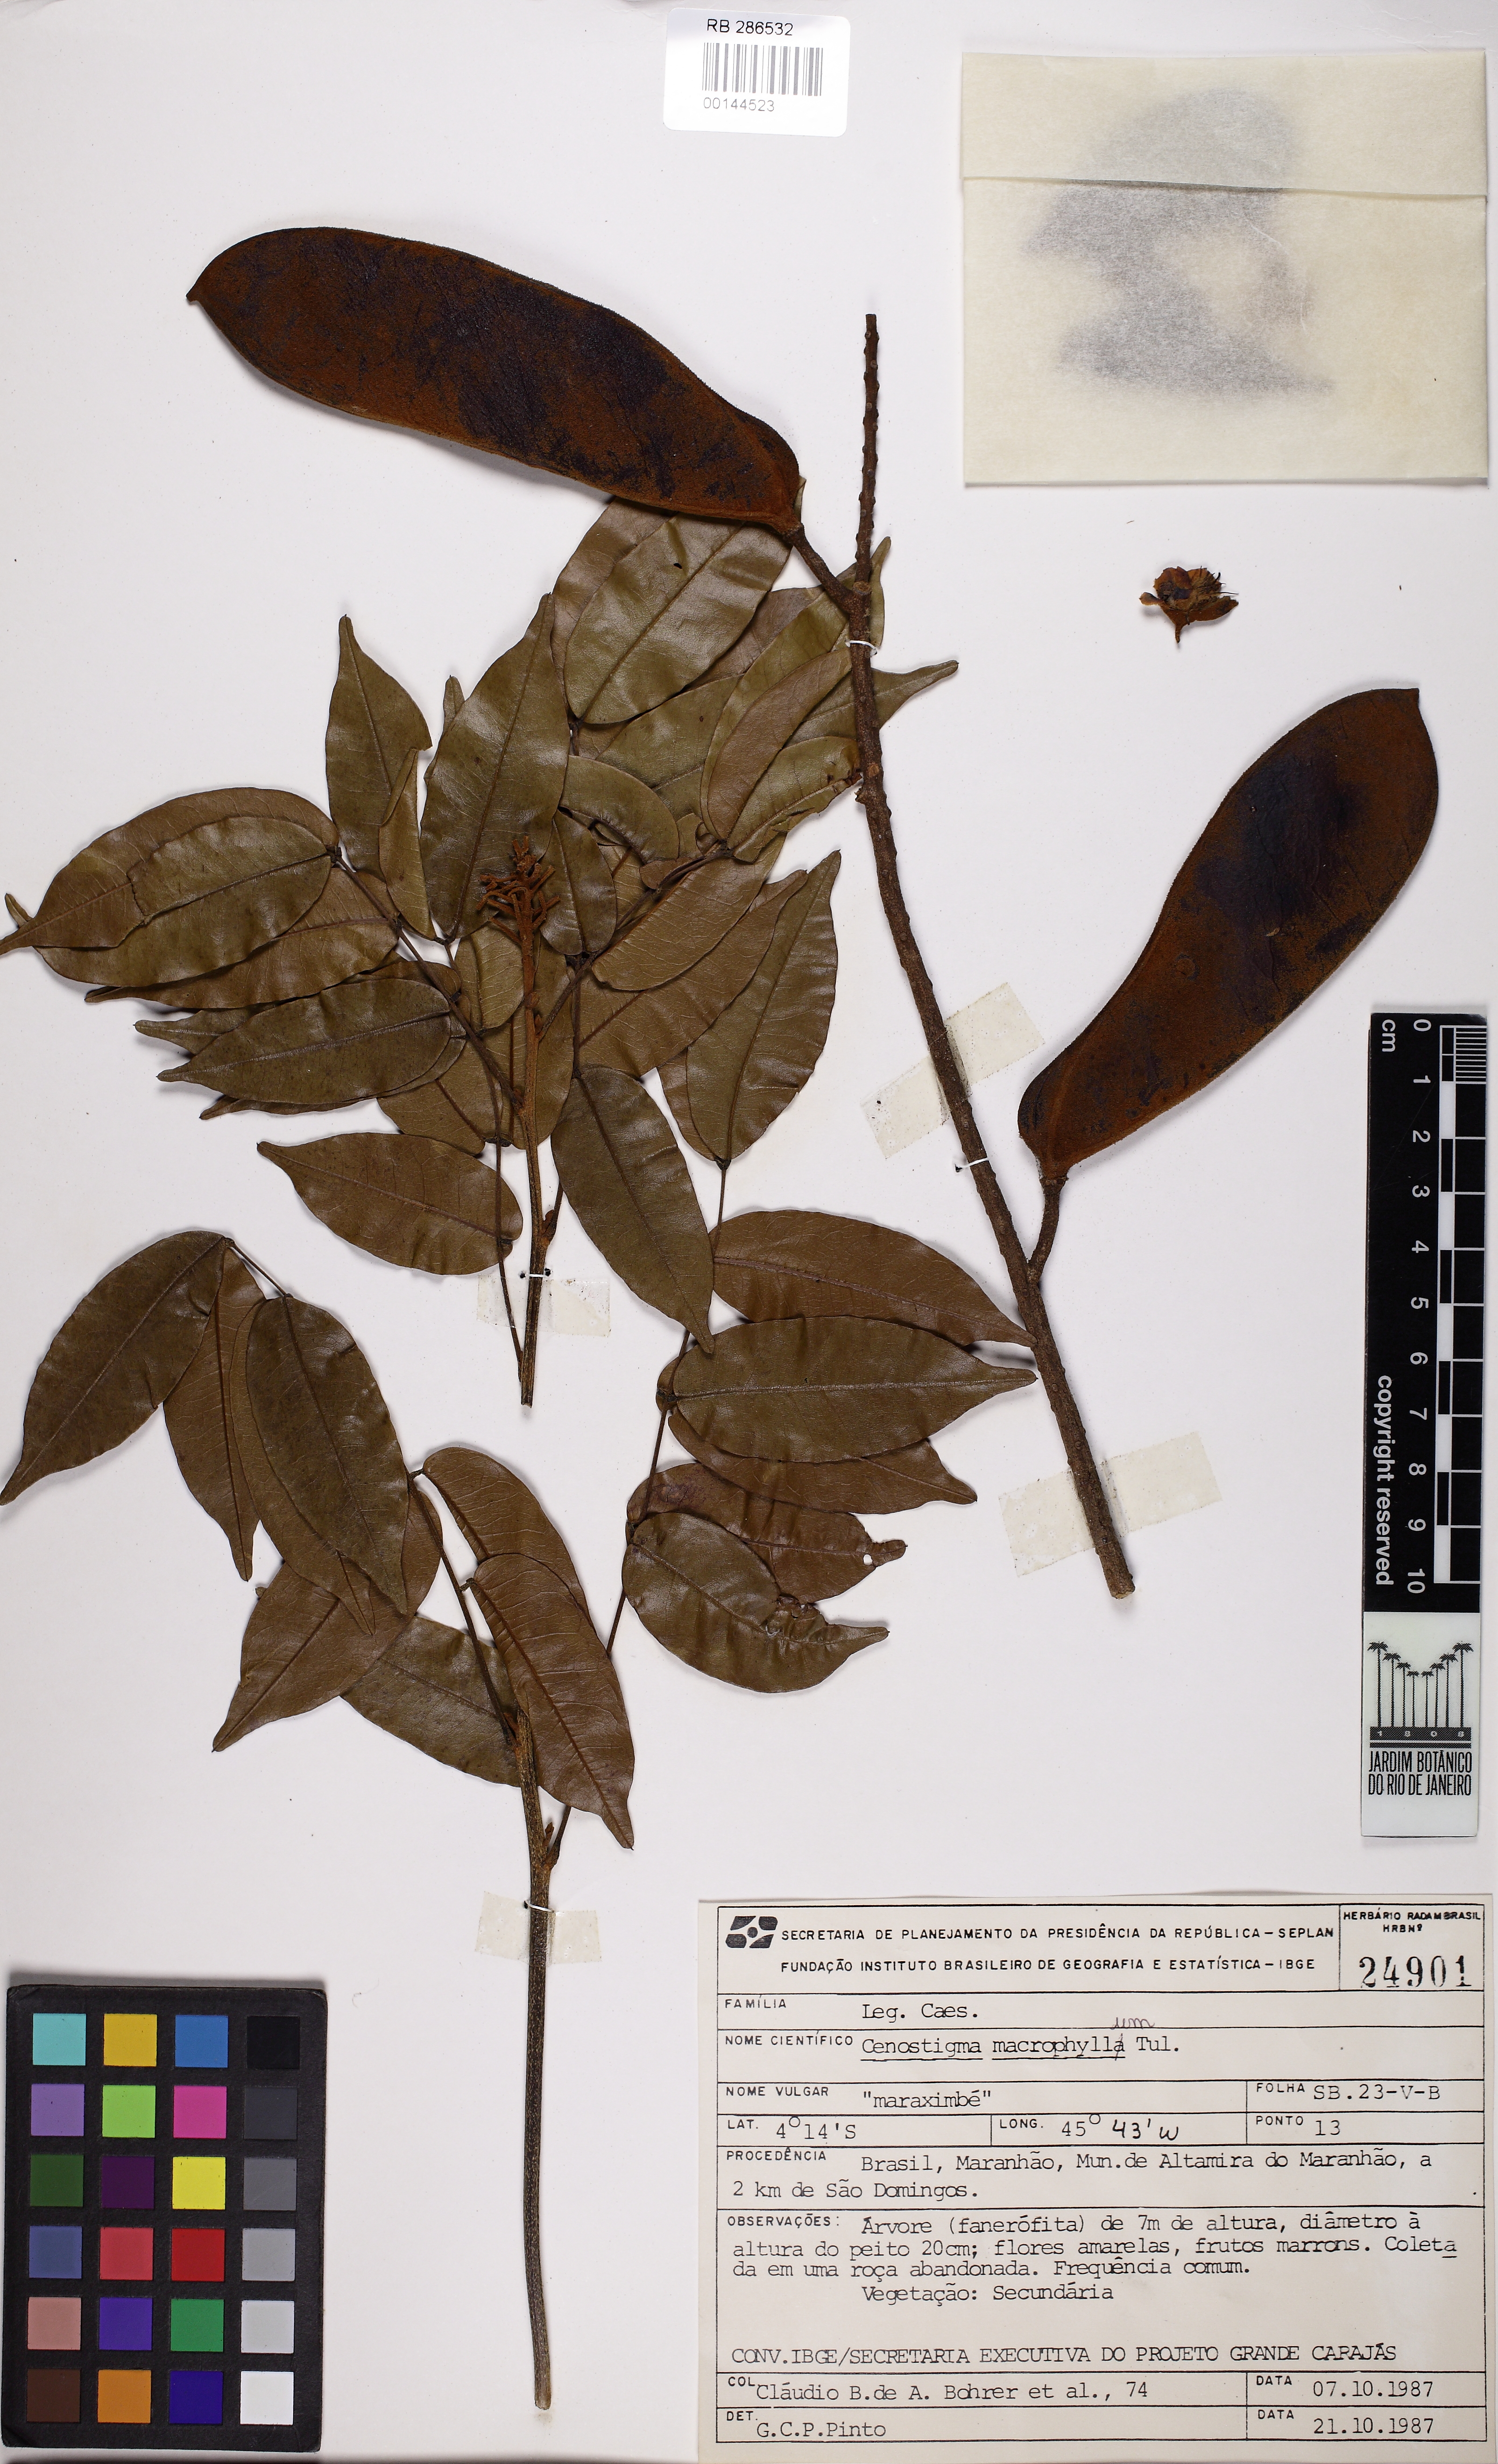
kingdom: Plantae
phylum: Tracheophyta
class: Magnoliopsida
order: Fabales
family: Fabaceae
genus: Cenostigma
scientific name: Cenostigma macrophyllum
